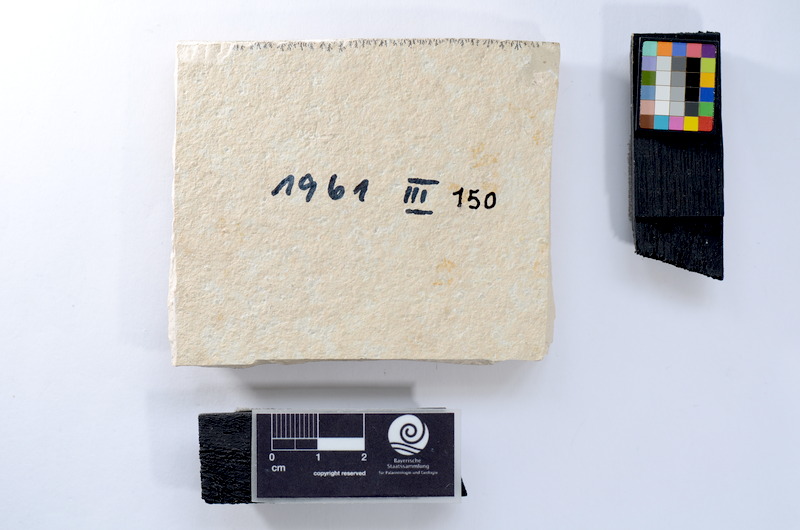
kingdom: Animalia
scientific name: Animalia
